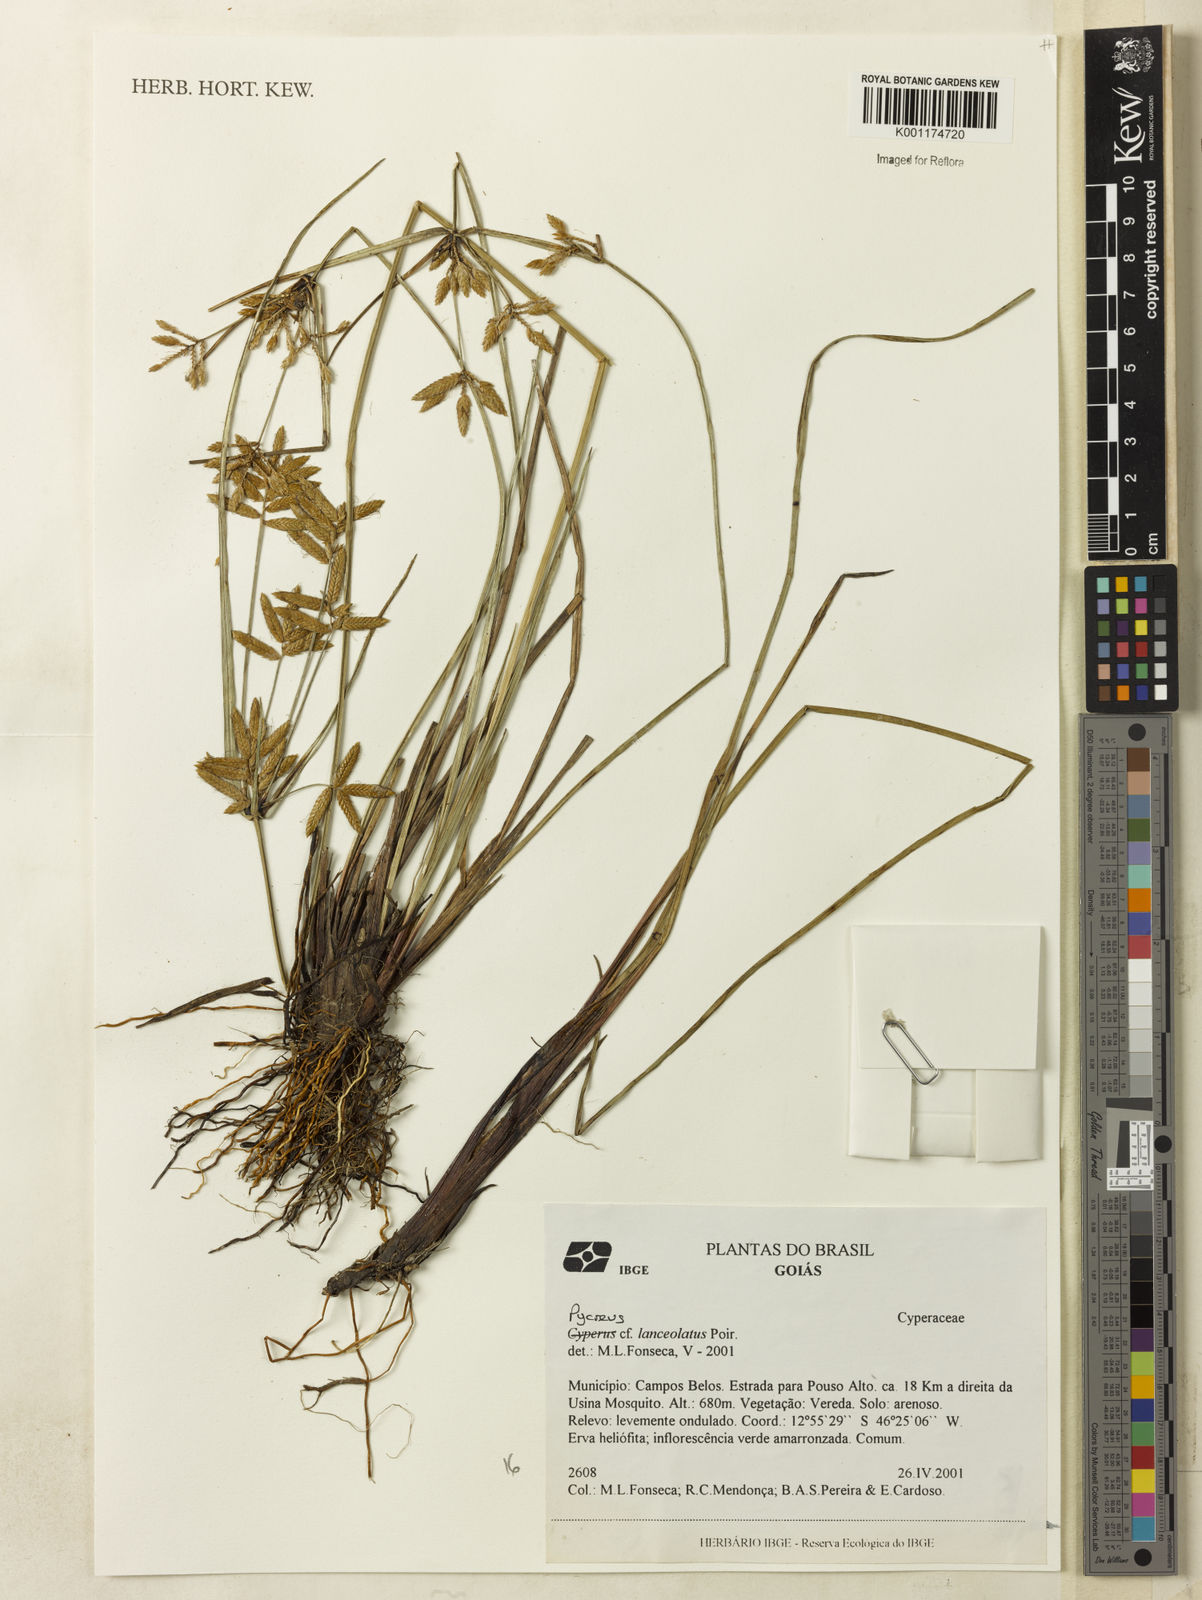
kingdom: Plantae
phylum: Tracheophyta
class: Liliopsida
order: Poales
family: Cyperaceae
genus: Cyperus
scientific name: Cyperus unioloides
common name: Uniola flatsedge
